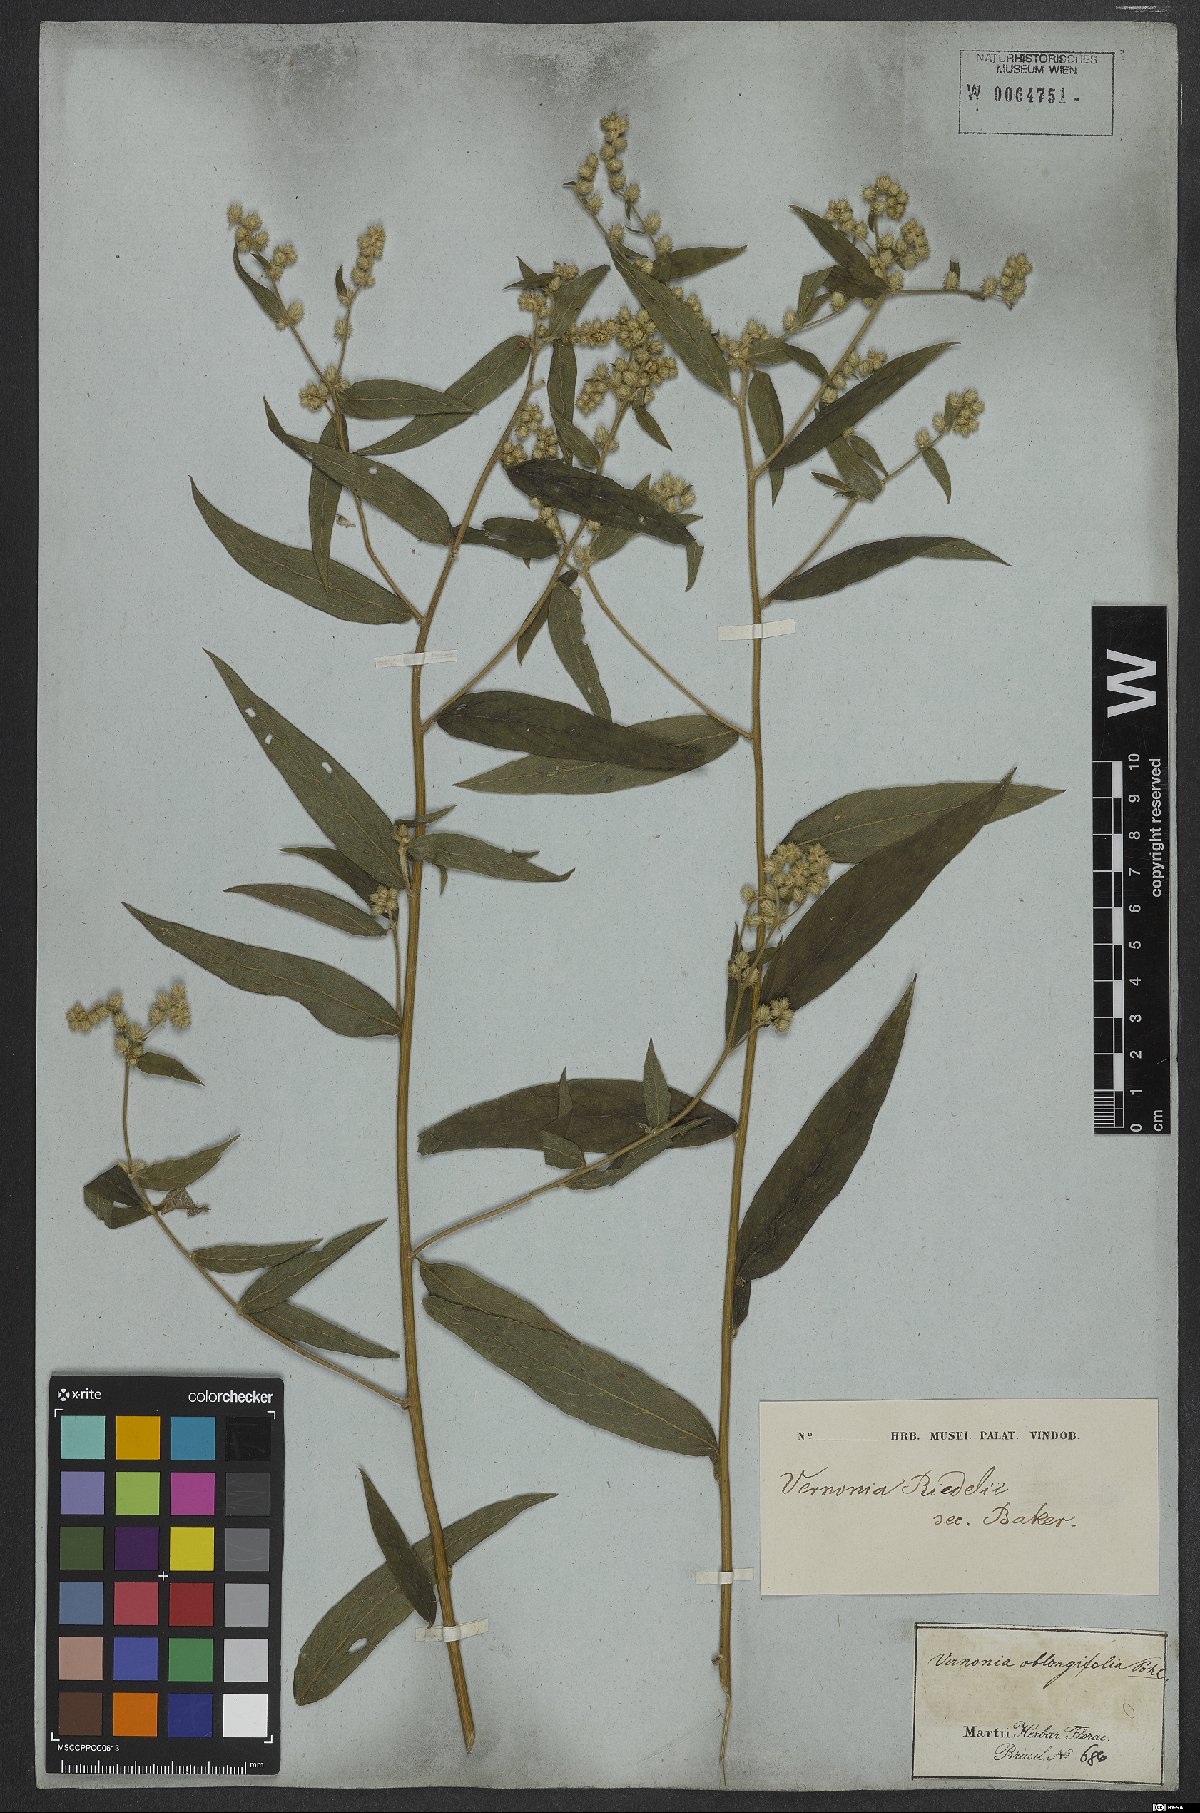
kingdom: Plantae
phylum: Tracheophyta
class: Magnoliopsida
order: Asterales
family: Asteraceae
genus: Lepidaploa
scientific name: Lepidaploa eriolepis
